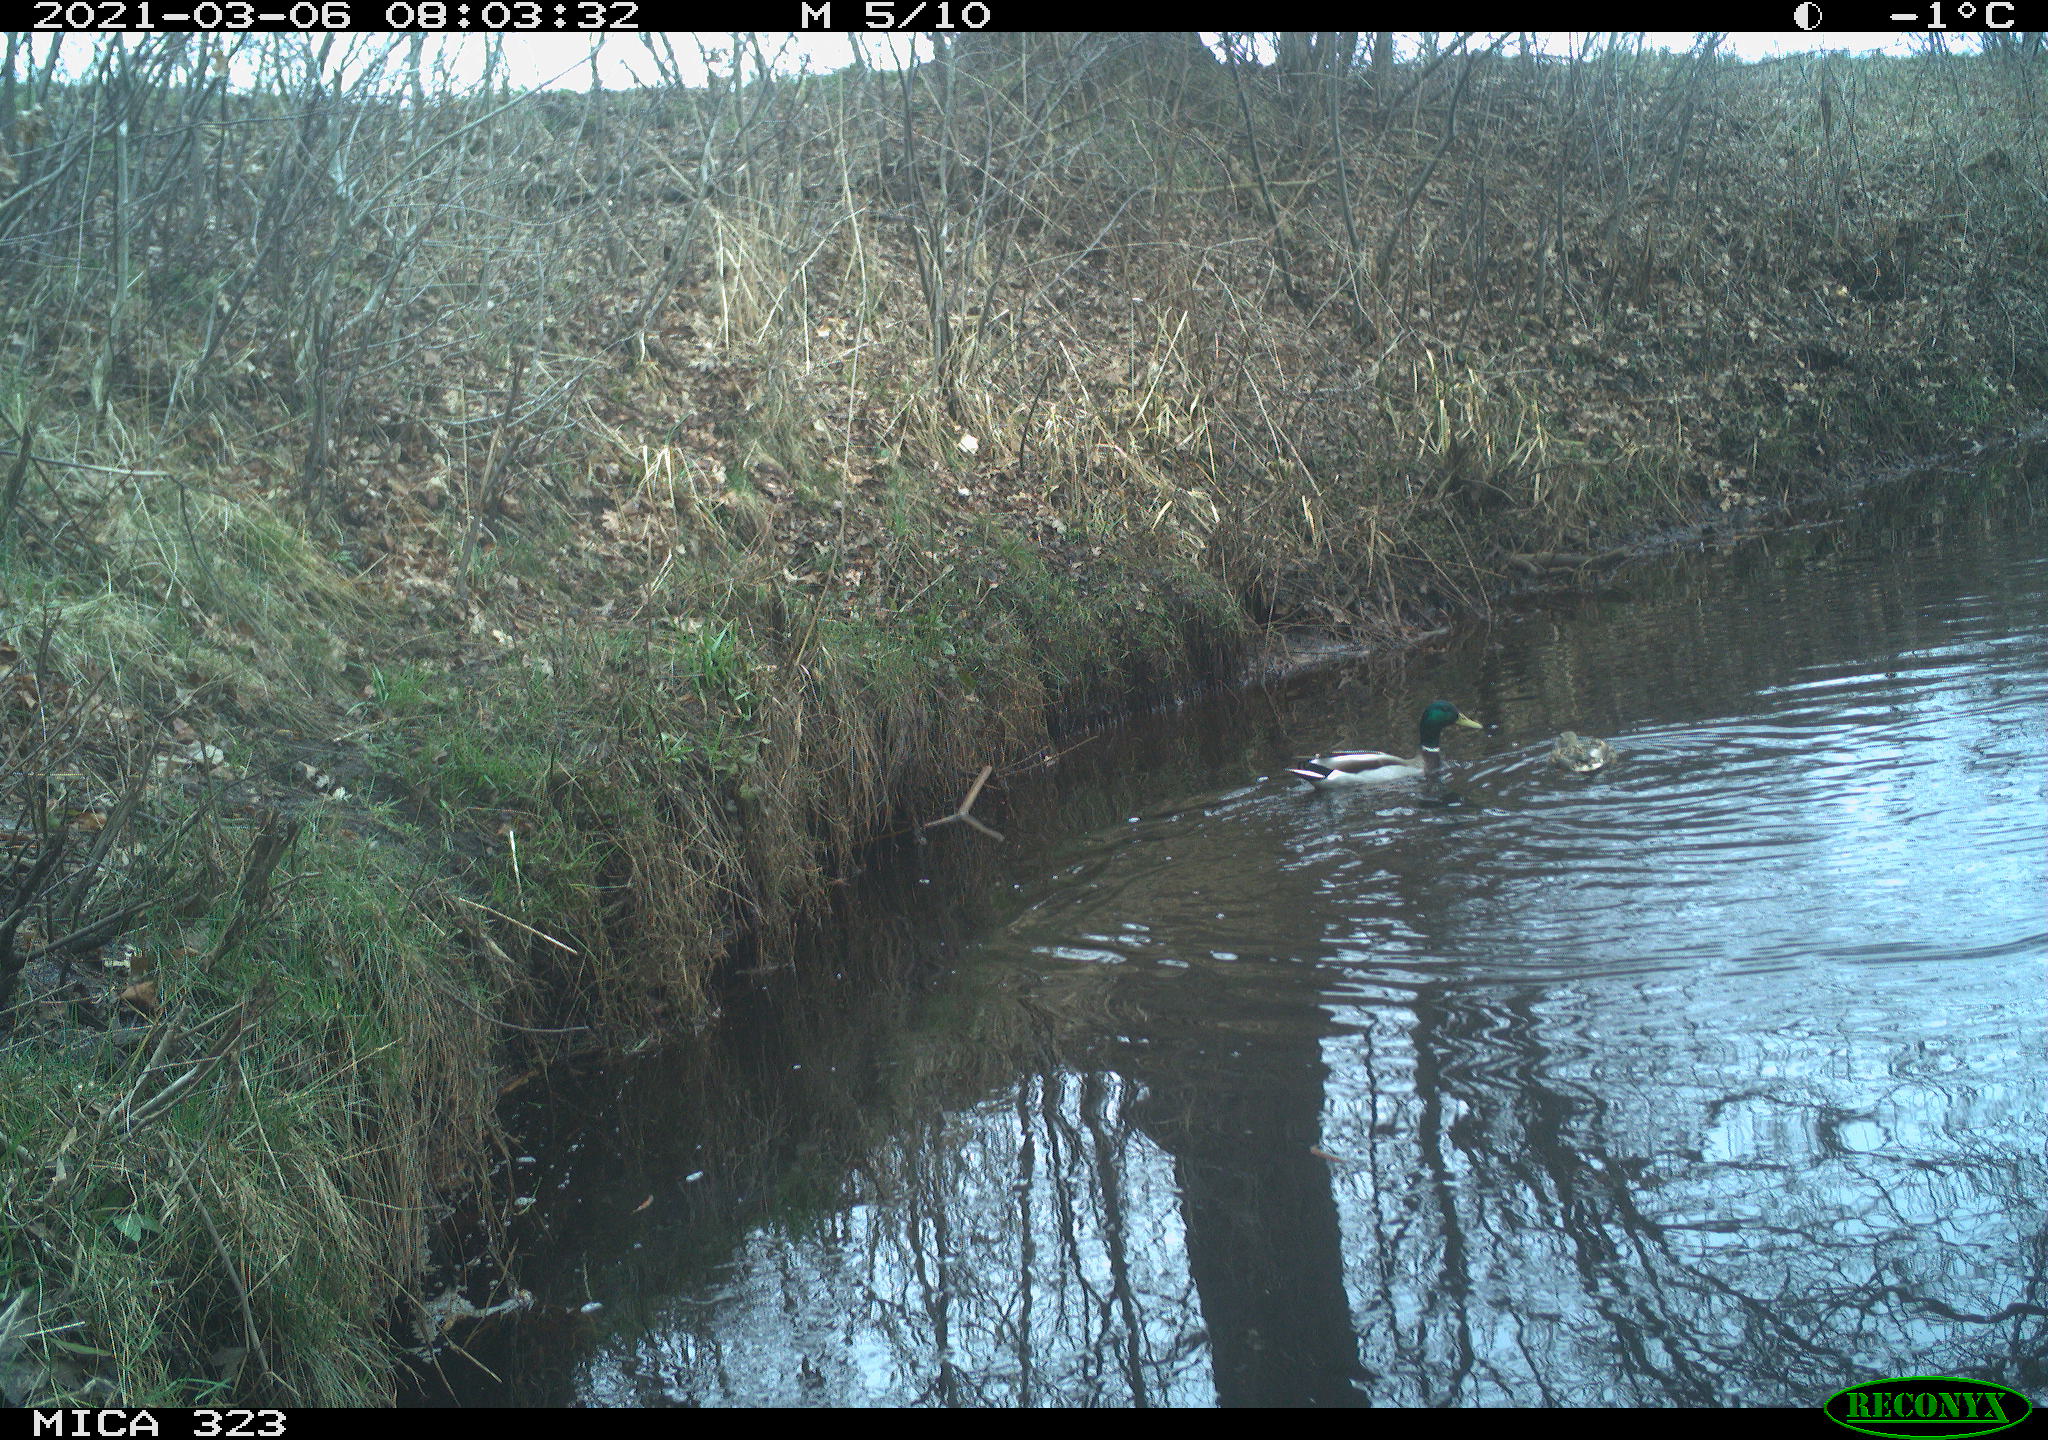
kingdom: Animalia
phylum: Chordata
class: Aves
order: Anseriformes
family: Anatidae
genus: Anas
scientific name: Anas platyrhynchos
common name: Mallard
